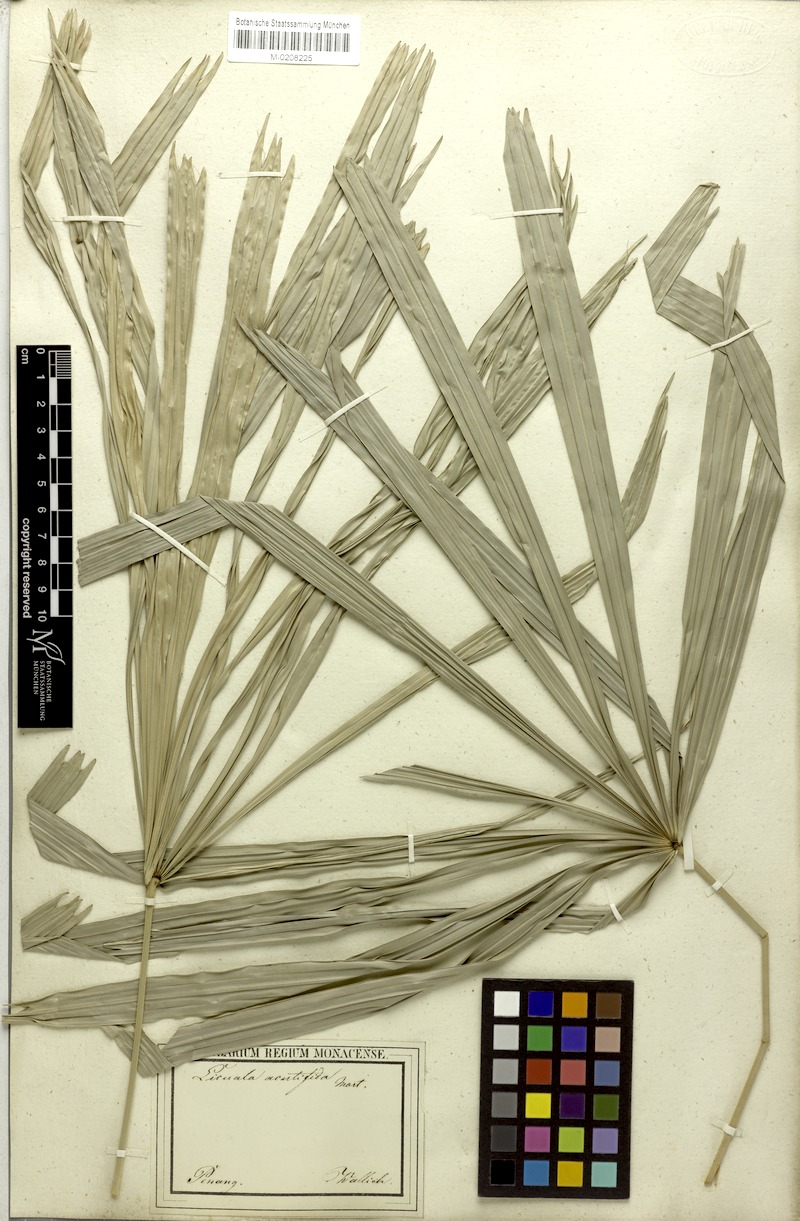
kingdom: Plantae
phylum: Tracheophyta
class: Liliopsida
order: Arecales
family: Arecaceae
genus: Licuala
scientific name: Licuala acutifida
